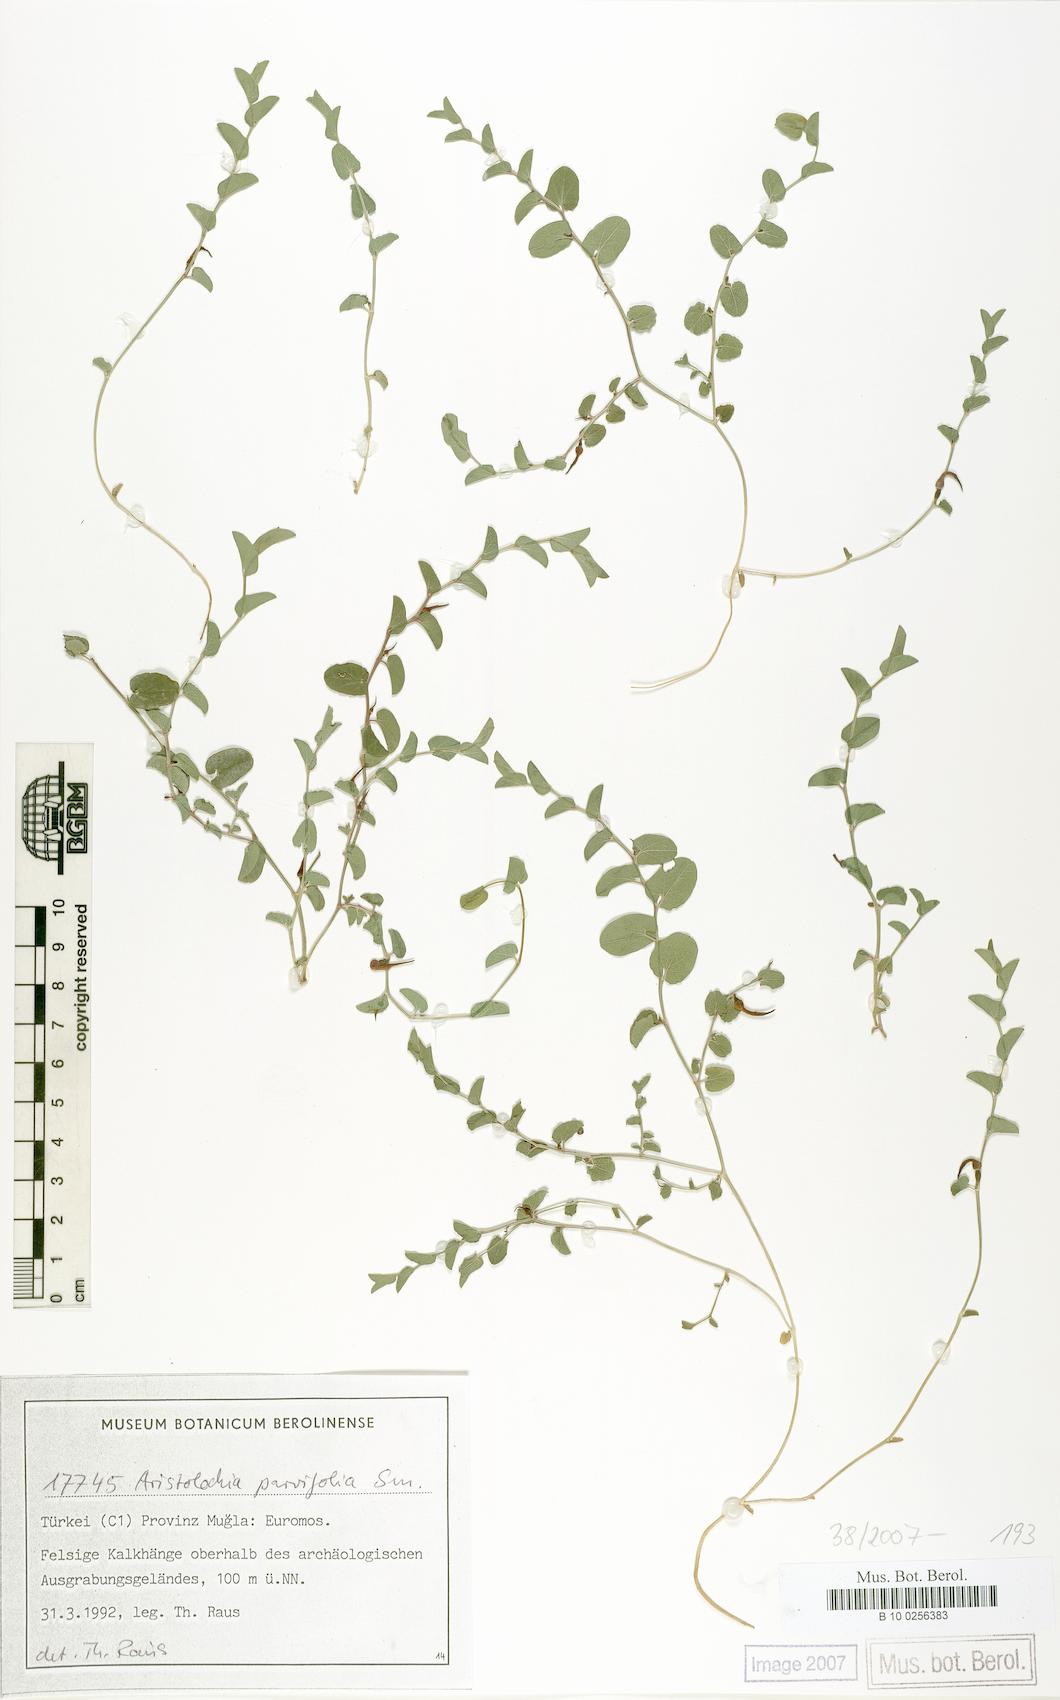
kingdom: Plantae
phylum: Tracheophyta
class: Magnoliopsida
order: Piperales
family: Aristolochiaceae
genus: Aristolochia
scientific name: Aristolochia parvifolia
